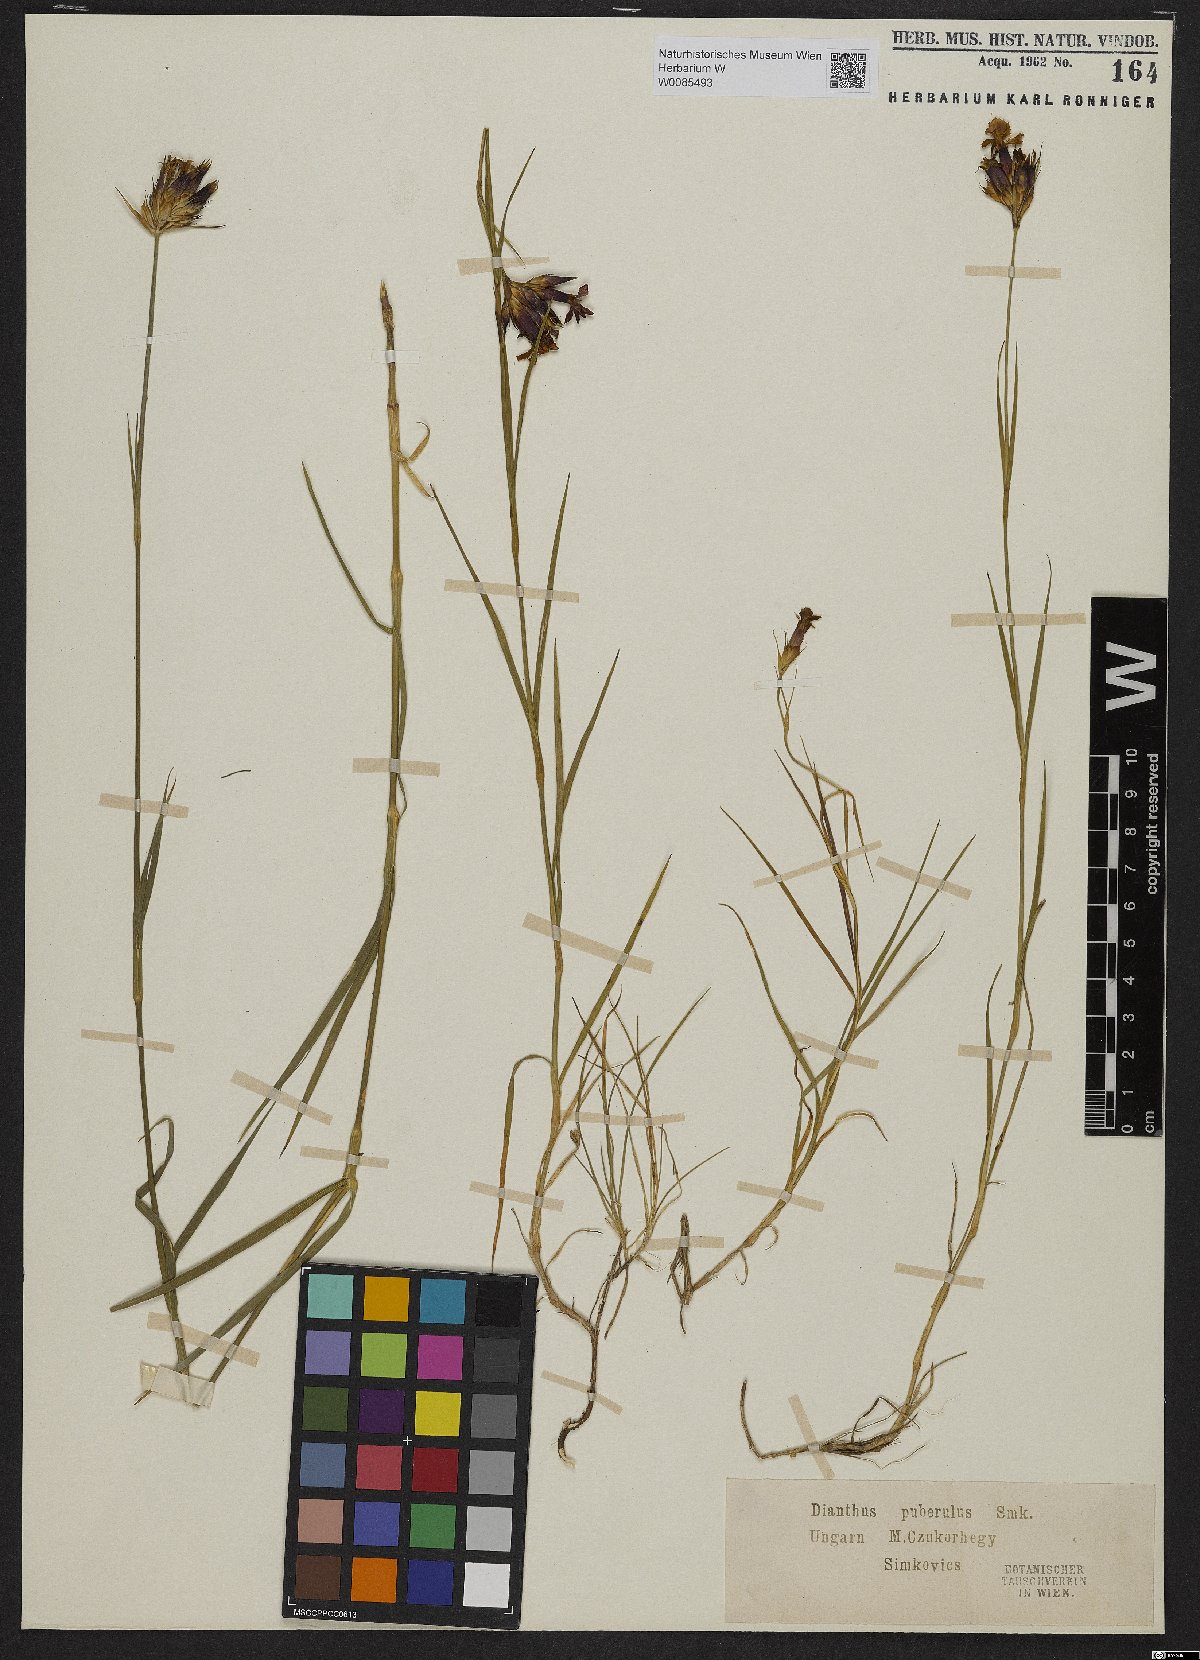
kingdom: Plantae
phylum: Tracheophyta
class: Magnoliopsida
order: Caryophyllales
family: Caryophyllaceae
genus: Dianthus
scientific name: Dianthus carthusianorum
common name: Carthusian pink
